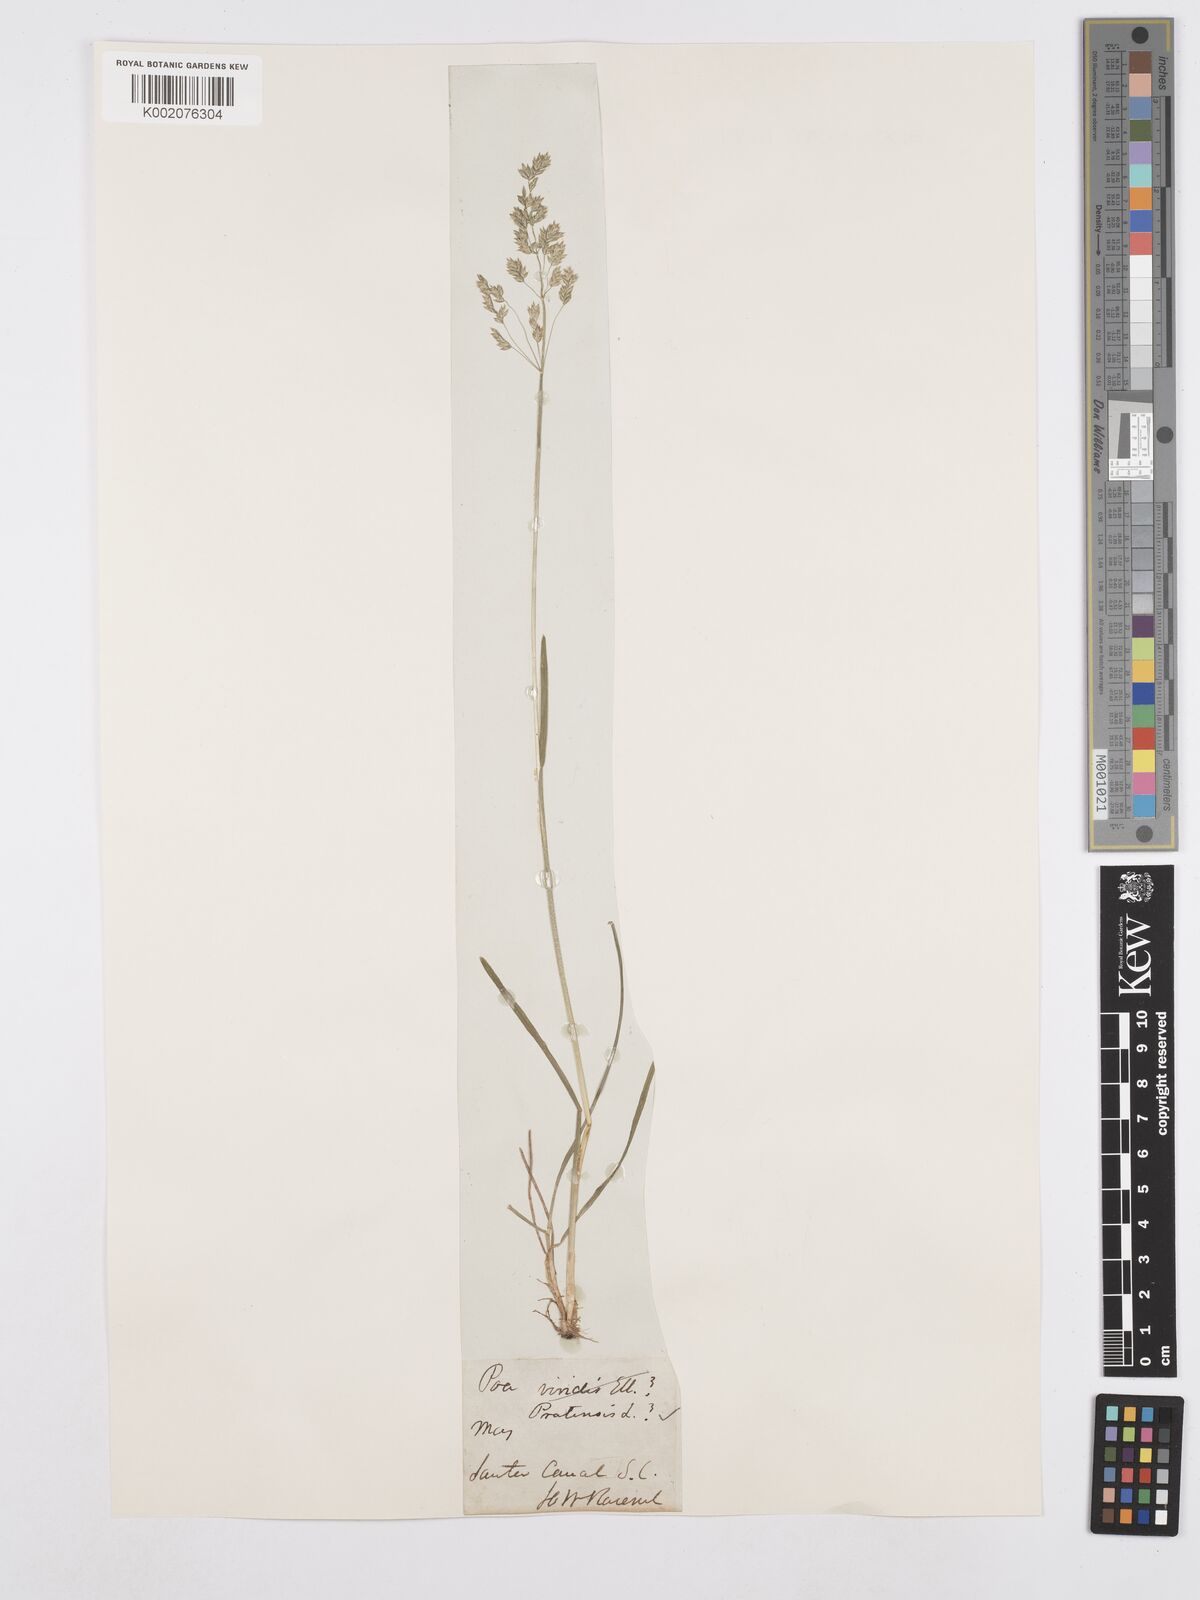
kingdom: Plantae
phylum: Tracheophyta
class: Liliopsida
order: Poales
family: Poaceae
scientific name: Poaceae
